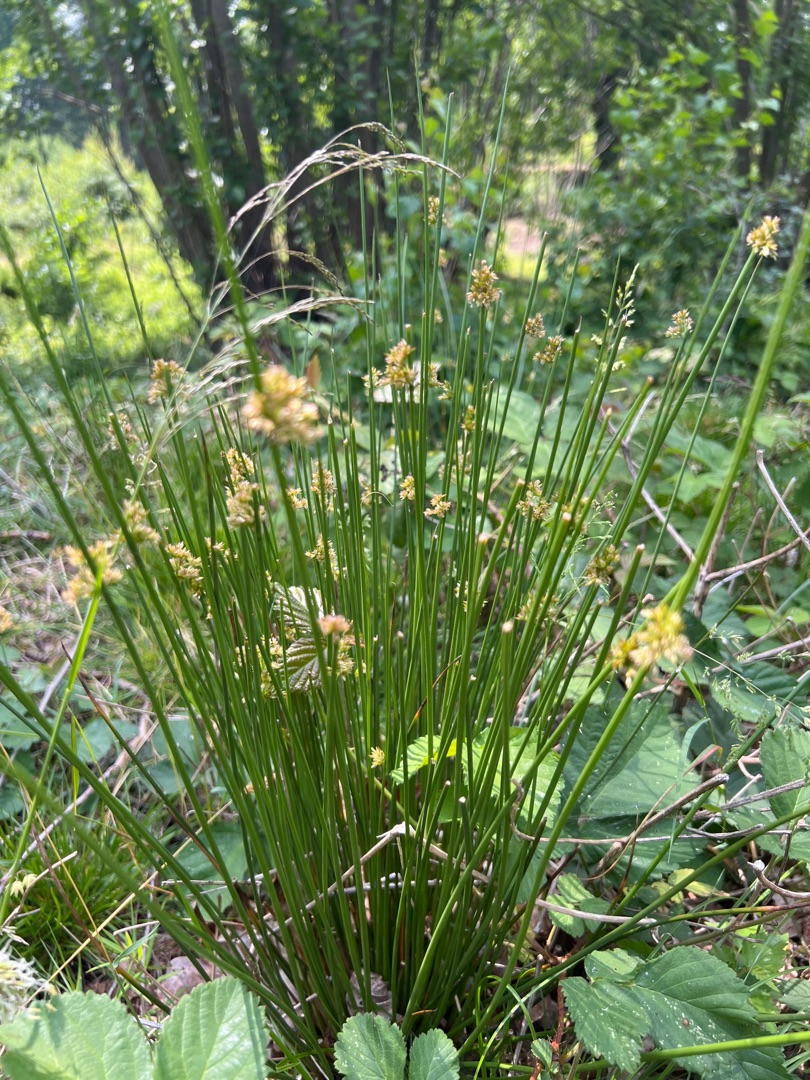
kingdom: Plantae
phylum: Tracheophyta
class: Liliopsida
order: Poales
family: Juncaceae
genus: Juncus
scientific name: Juncus effusus
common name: Lyse-siv
